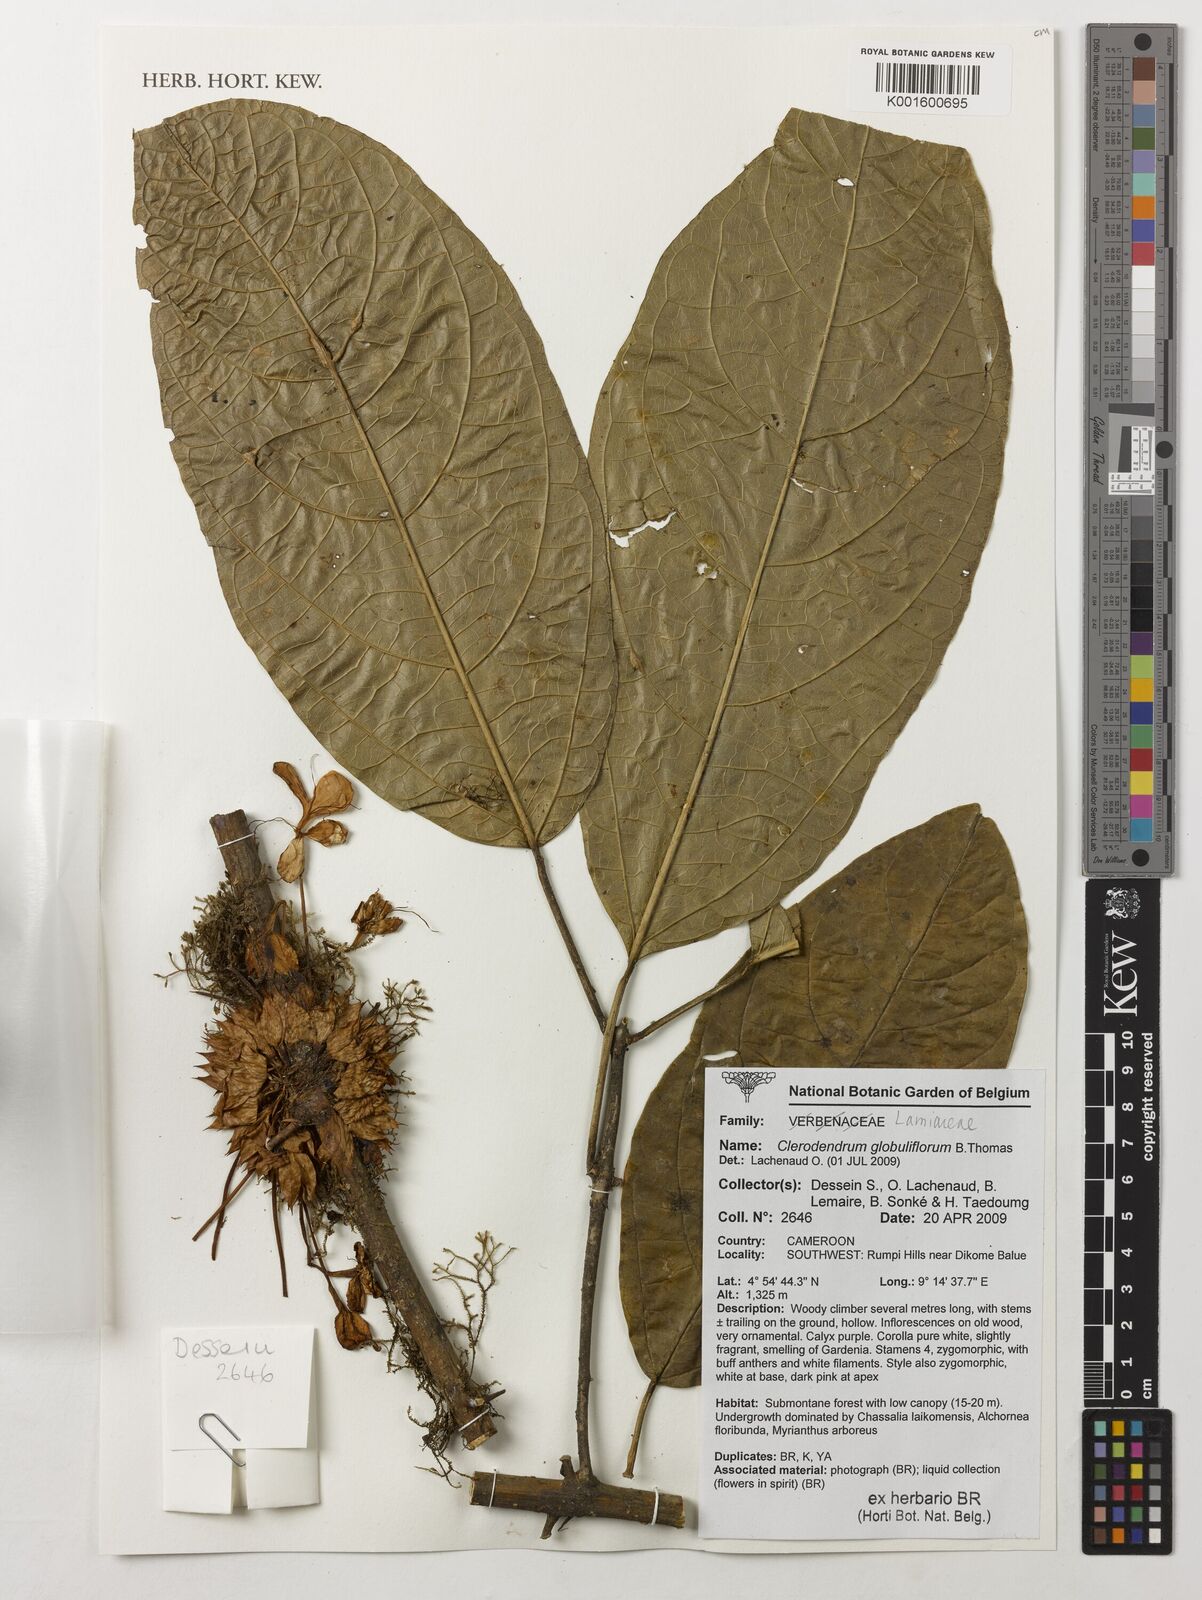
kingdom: Plantae
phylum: Tracheophyta
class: Magnoliopsida
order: Lamiales
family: Lamiaceae
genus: Clerodendrum
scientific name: Clerodendrum globuliflorum
